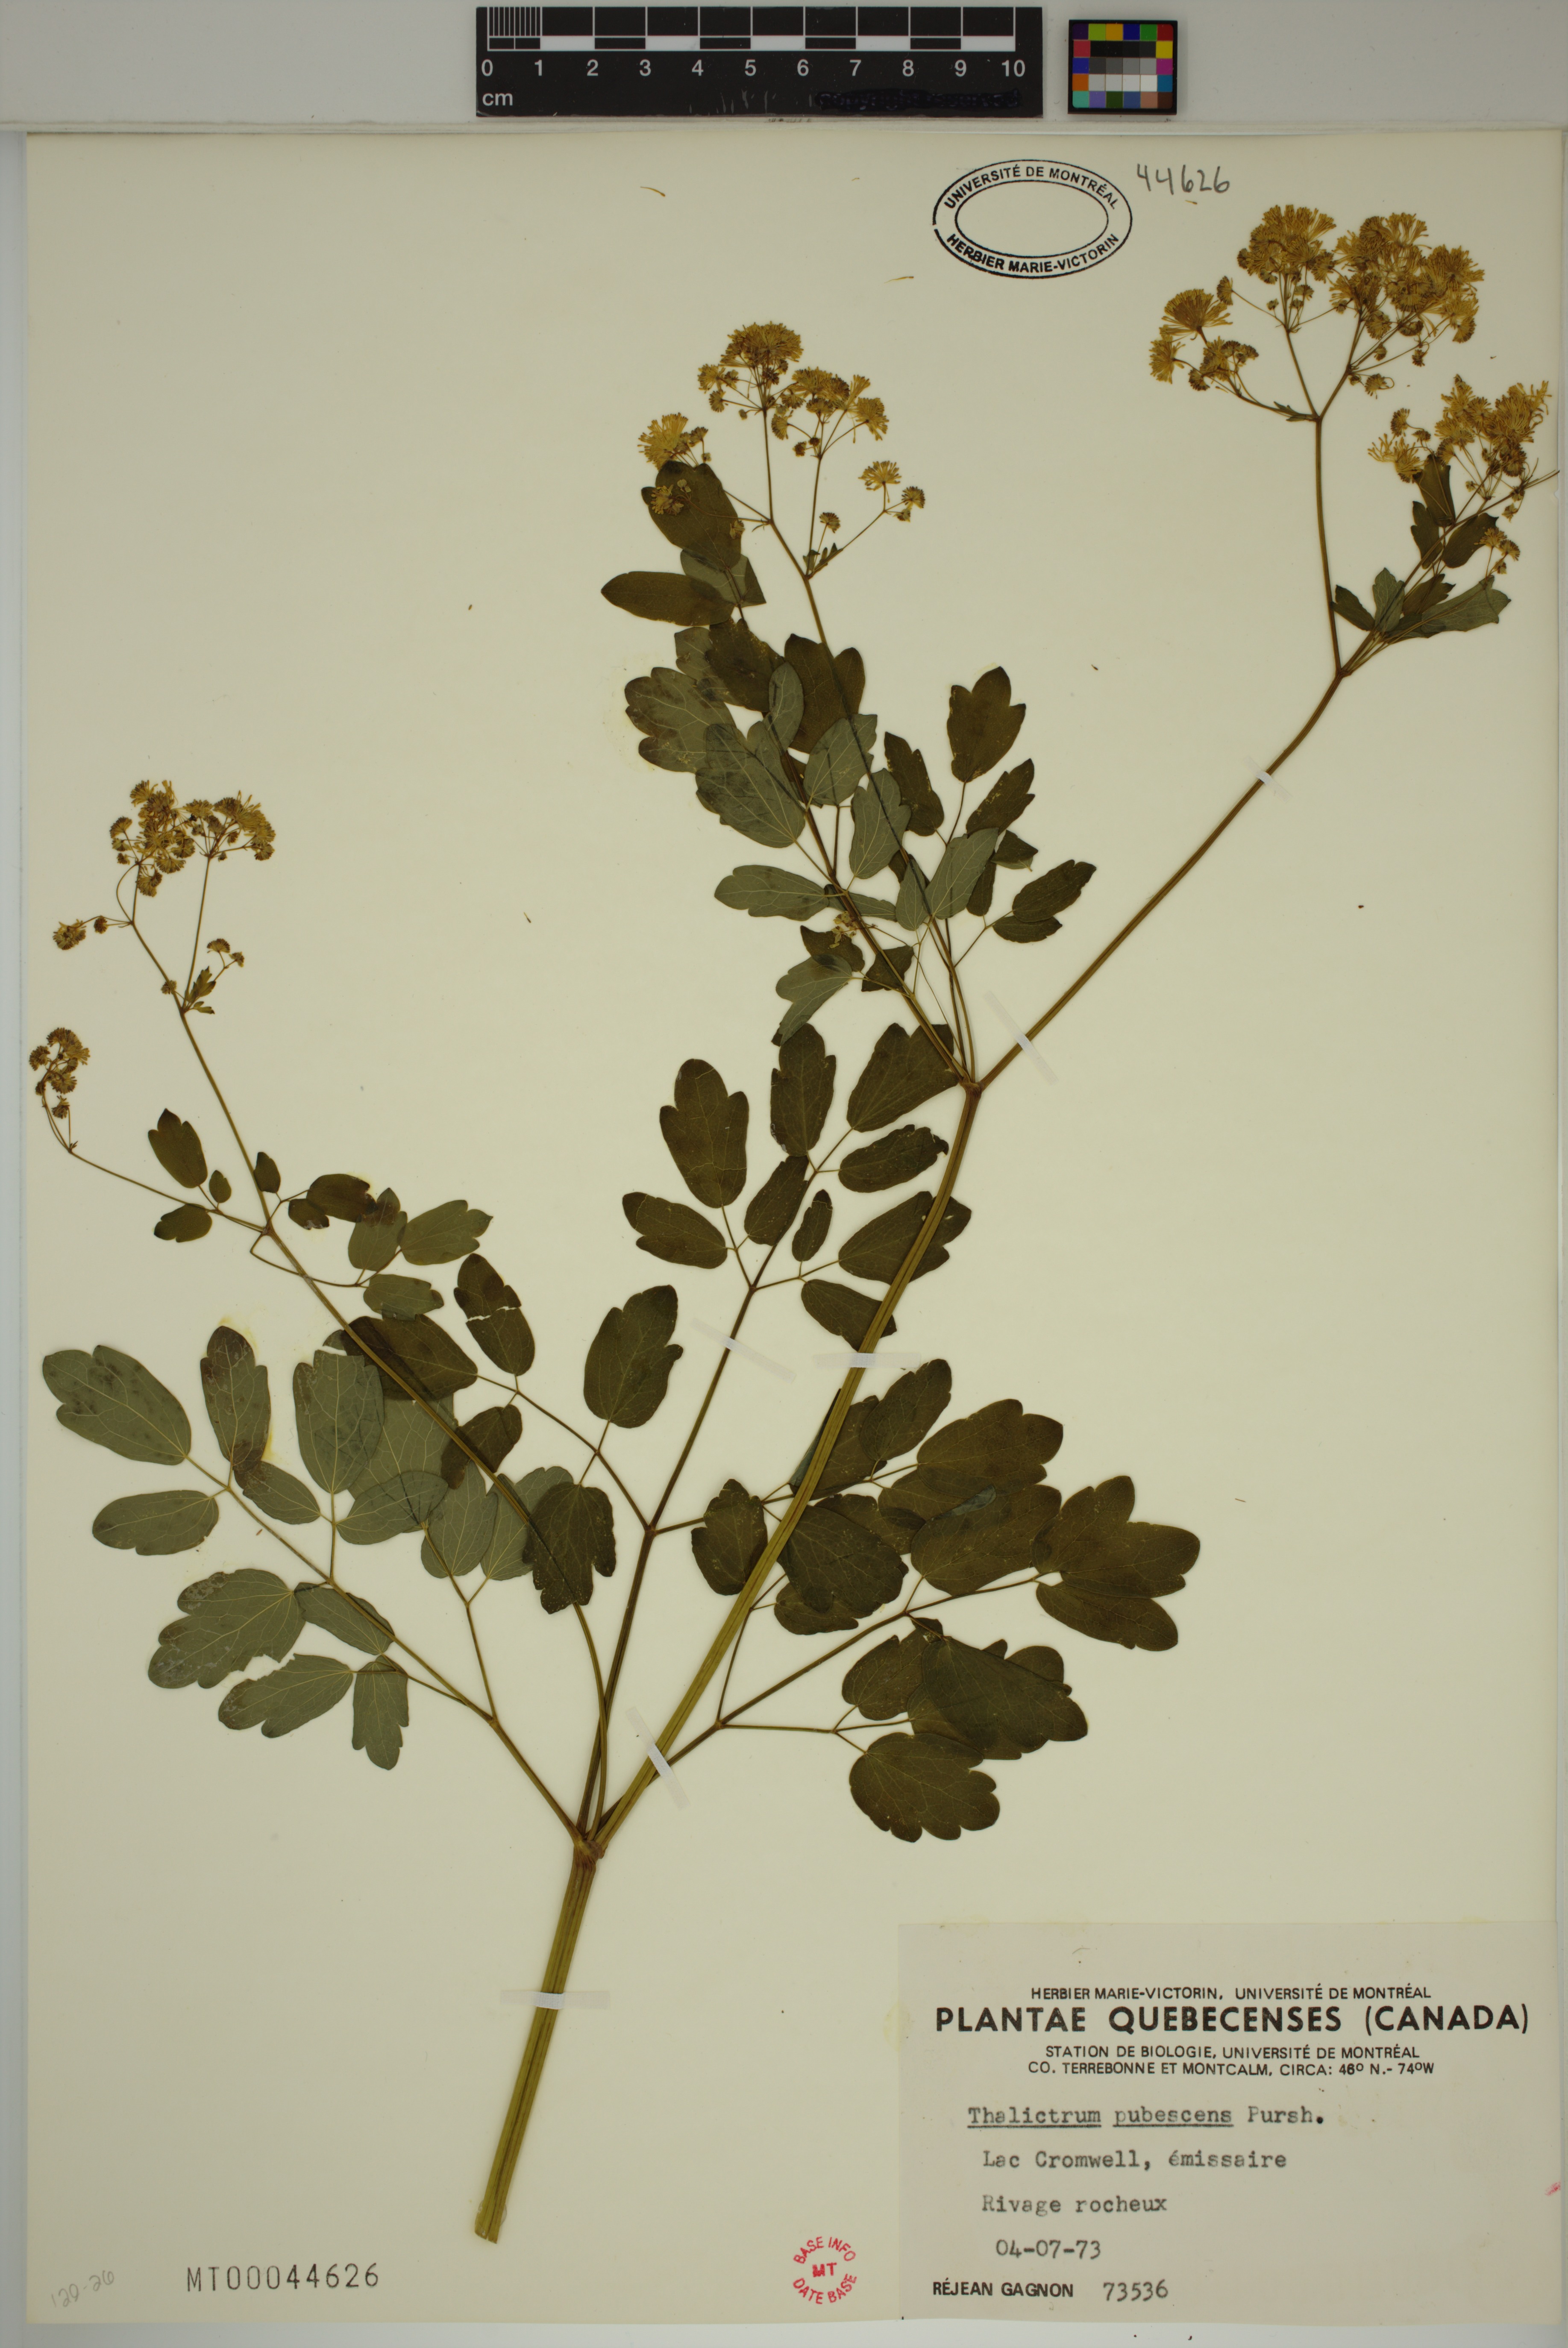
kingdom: Plantae
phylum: Tracheophyta
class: Magnoliopsida
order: Ranunculales
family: Ranunculaceae
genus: Thalictrum
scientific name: Thalictrum pubescens
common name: King-of-the-meadow
